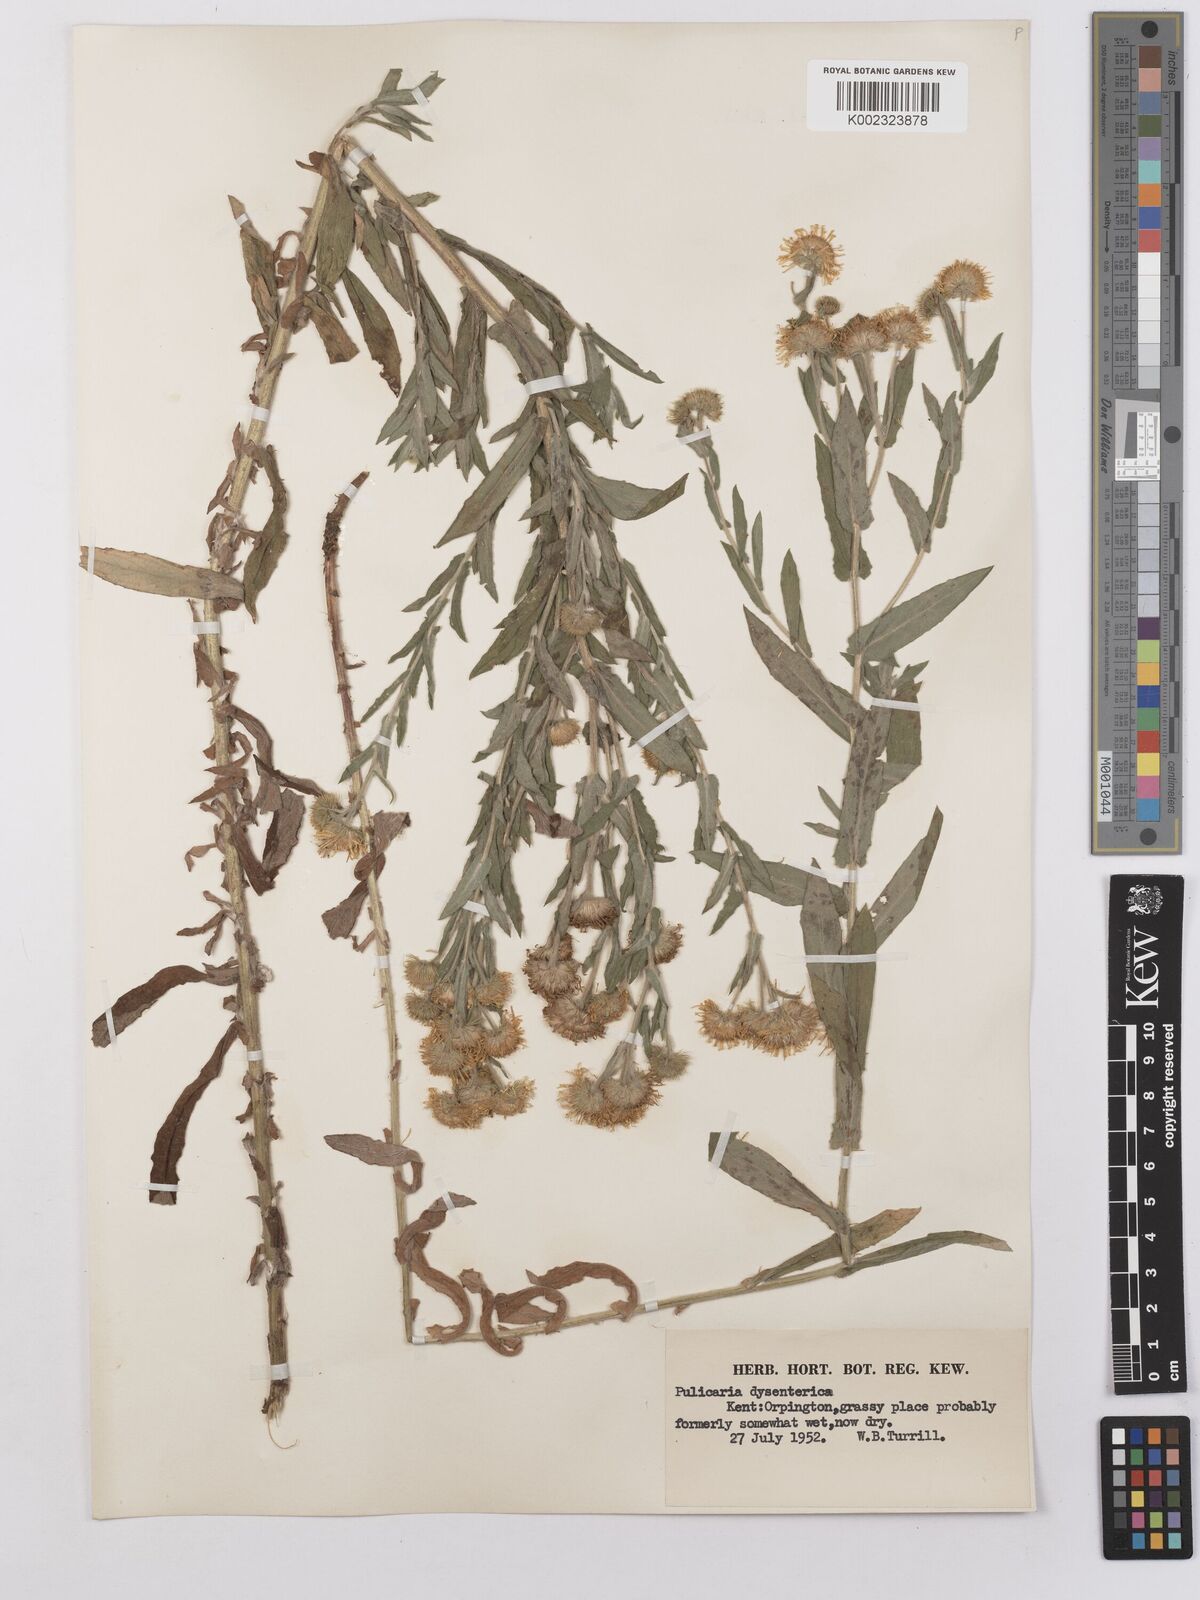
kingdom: Plantae
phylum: Tracheophyta
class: Magnoliopsida
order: Asterales
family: Asteraceae
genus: Pulicaria
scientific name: Pulicaria dysenterica
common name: Common fleabane
